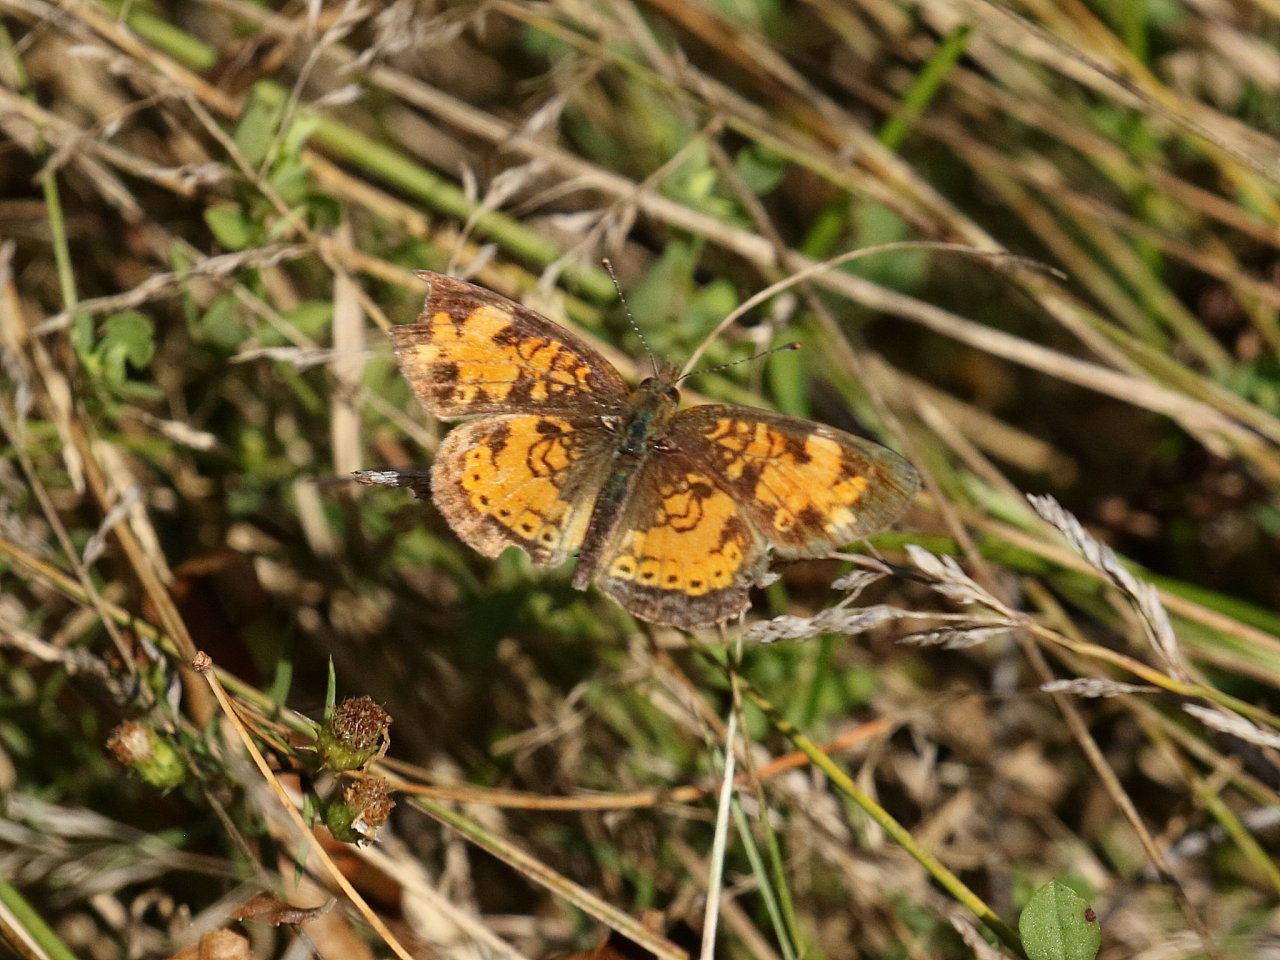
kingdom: Animalia
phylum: Arthropoda
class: Insecta
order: Lepidoptera
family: Nymphalidae
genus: Phyciodes
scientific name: Phyciodes tharos
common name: Pearl Crescent
